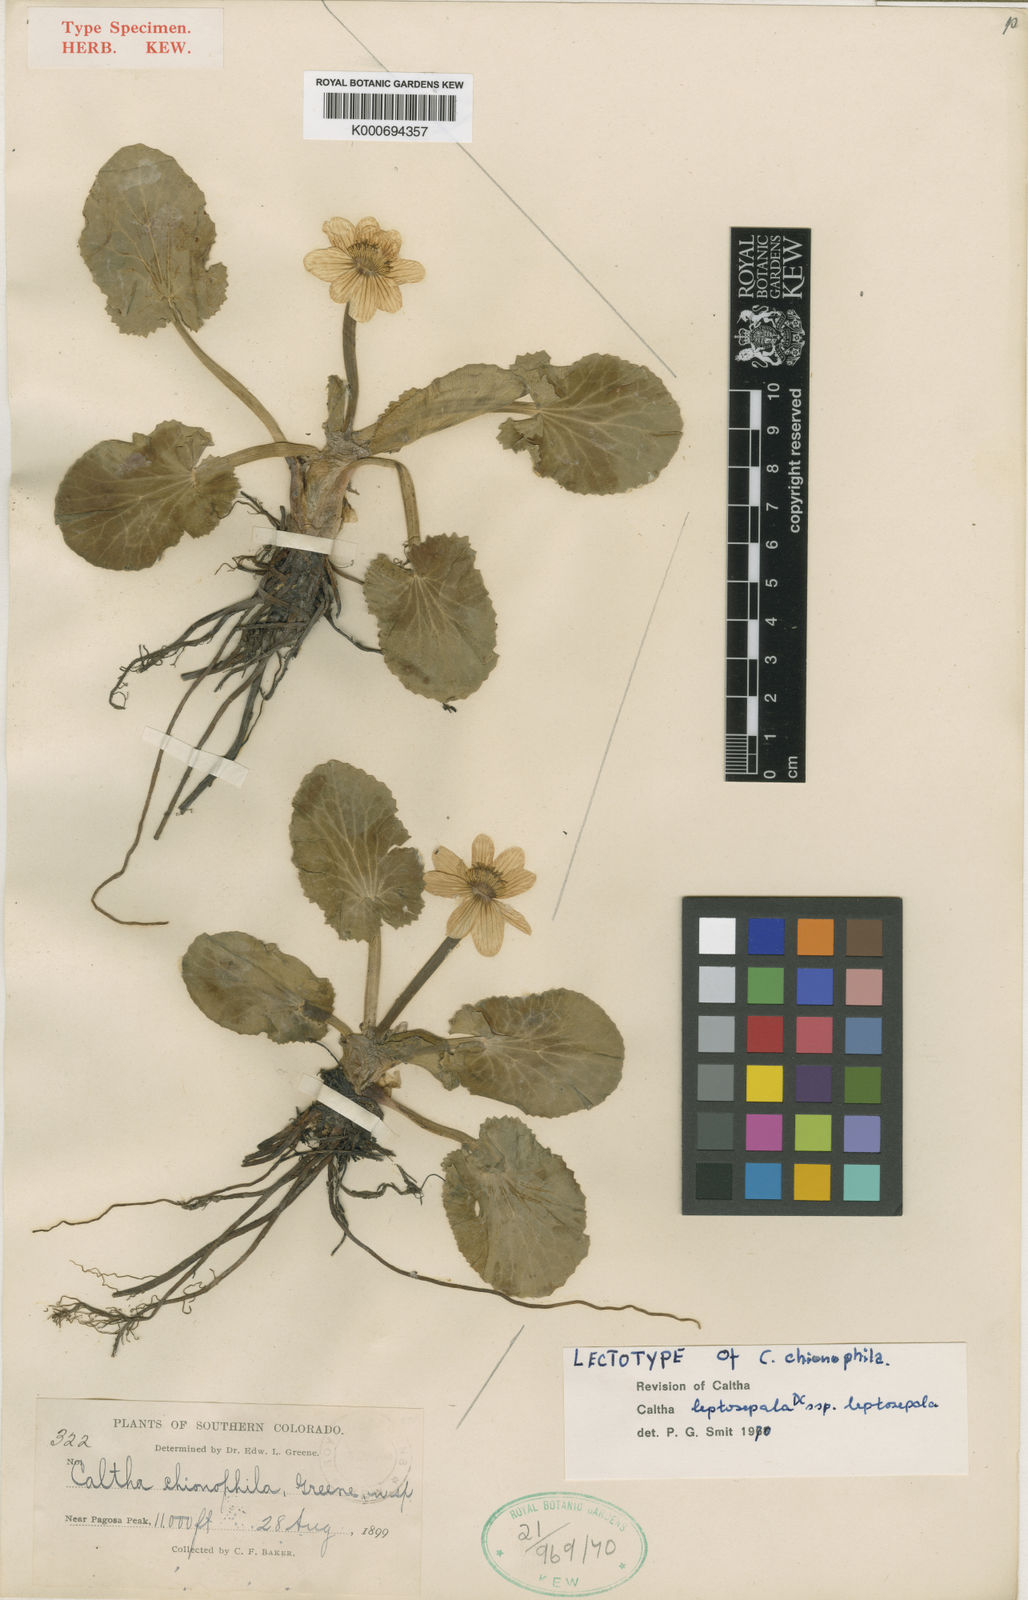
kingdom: Plantae
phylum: Tracheophyta
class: Magnoliopsida
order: Ranunculales
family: Ranunculaceae
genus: Caltha
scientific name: Caltha leptosepala
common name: Elkslip
